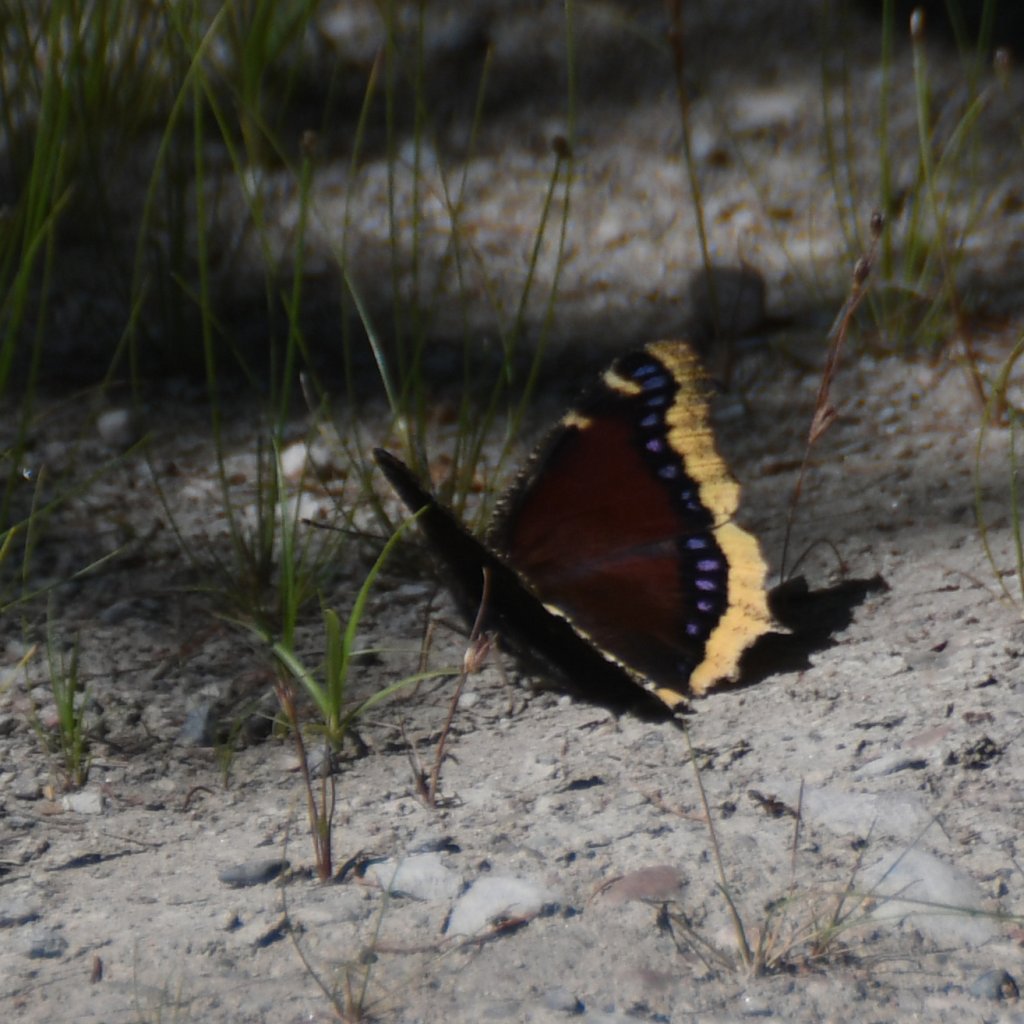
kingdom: Animalia
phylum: Arthropoda
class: Insecta
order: Lepidoptera
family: Nymphalidae
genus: Nymphalis
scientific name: Nymphalis antiopa
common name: Mourning Cloak
